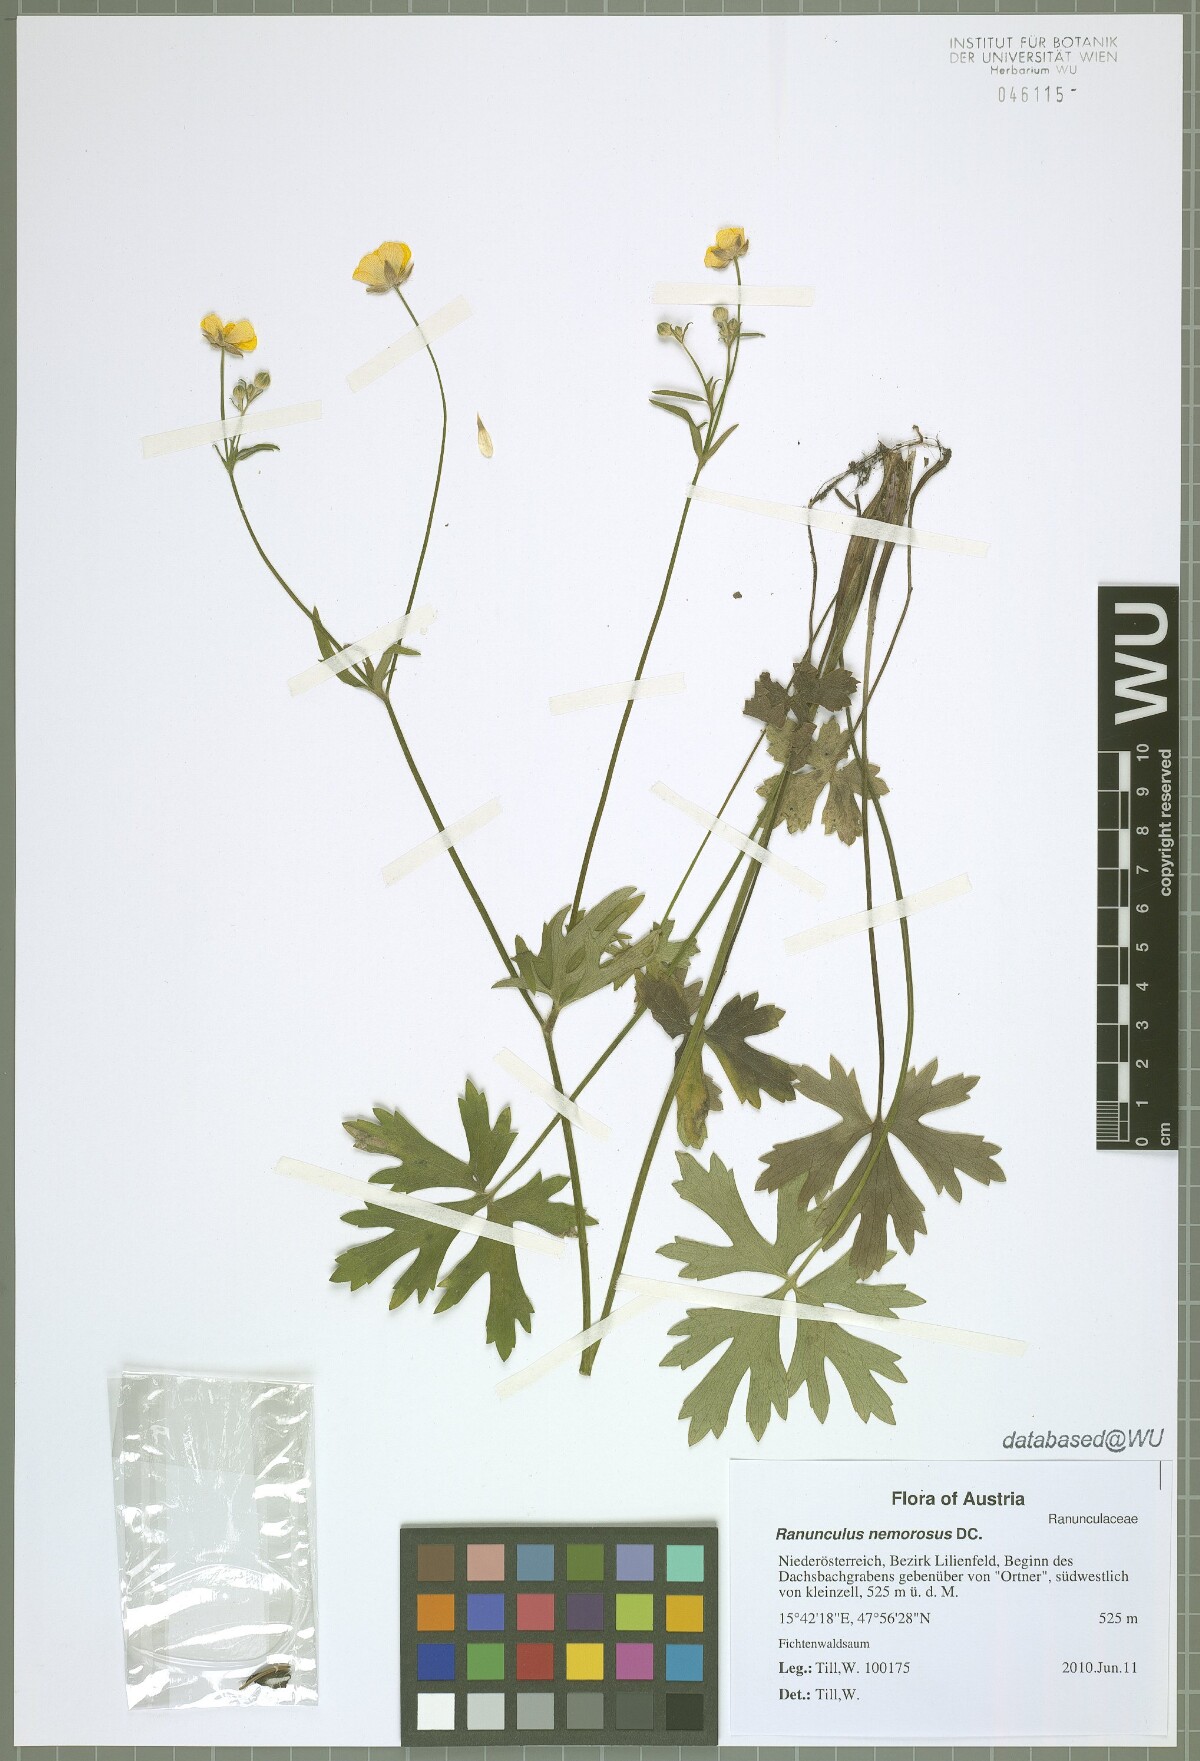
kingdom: Plantae
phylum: Tracheophyta
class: Magnoliopsida
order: Ranunculales
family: Ranunculaceae
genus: Ranunculus
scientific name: Ranunculus polyanthemos
